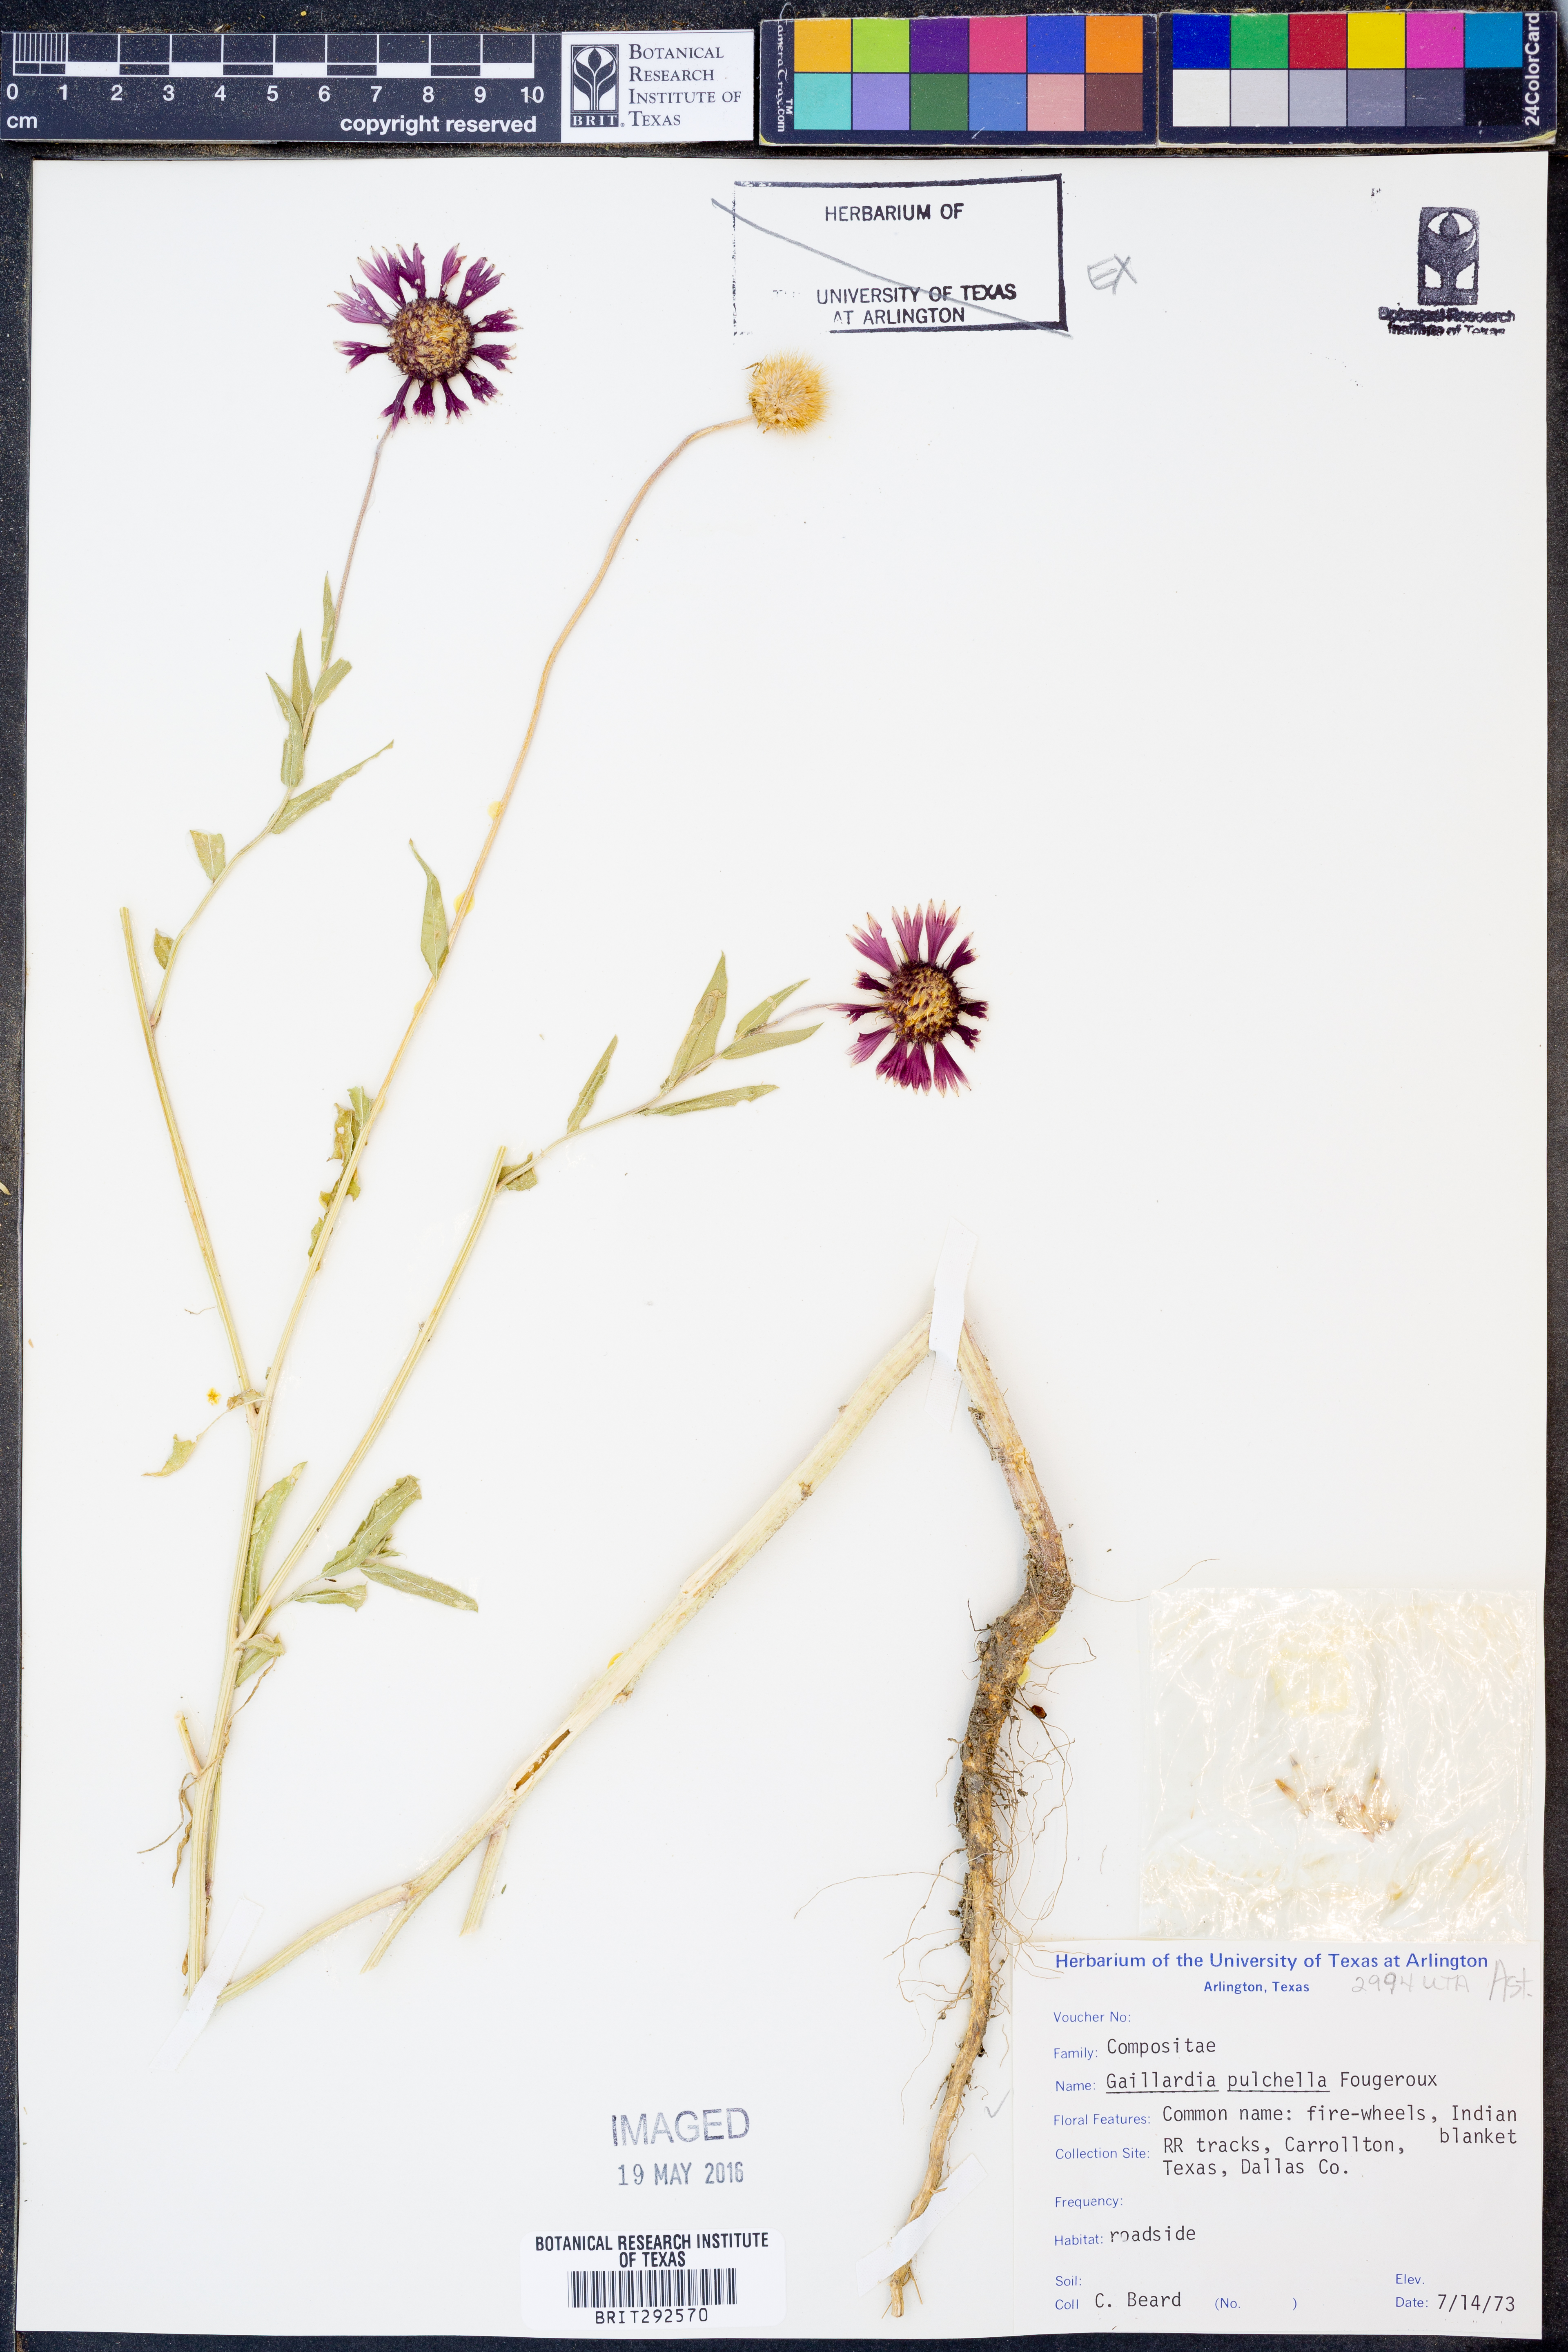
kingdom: Plantae
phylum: Tracheophyta
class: Magnoliopsida
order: Asterales
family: Asteraceae
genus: Gaillardia
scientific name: Gaillardia pulchella
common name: Firewheel
